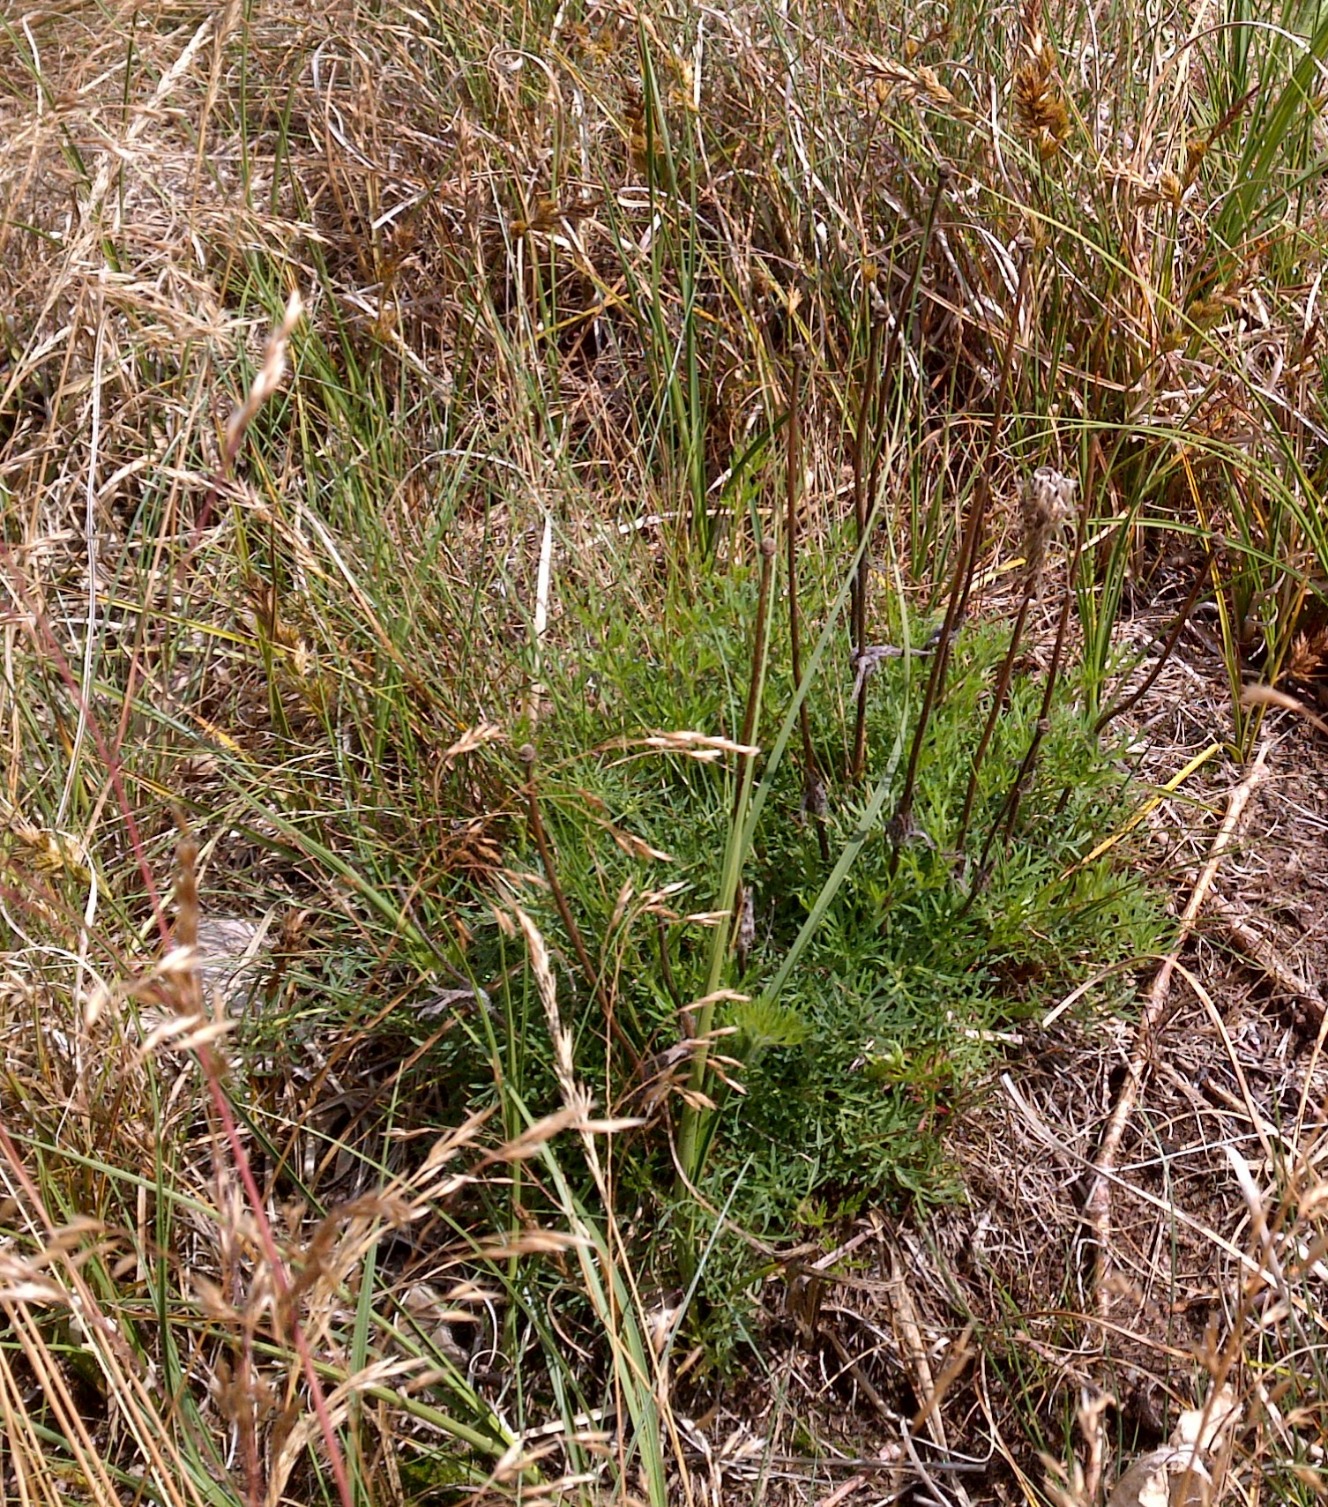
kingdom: Plantae
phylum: Tracheophyta
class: Magnoliopsida
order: Ranunculales
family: Ranunculaceae
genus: Pulsatilla
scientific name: Pulsatilla vulgaris
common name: Opret kobjælde
